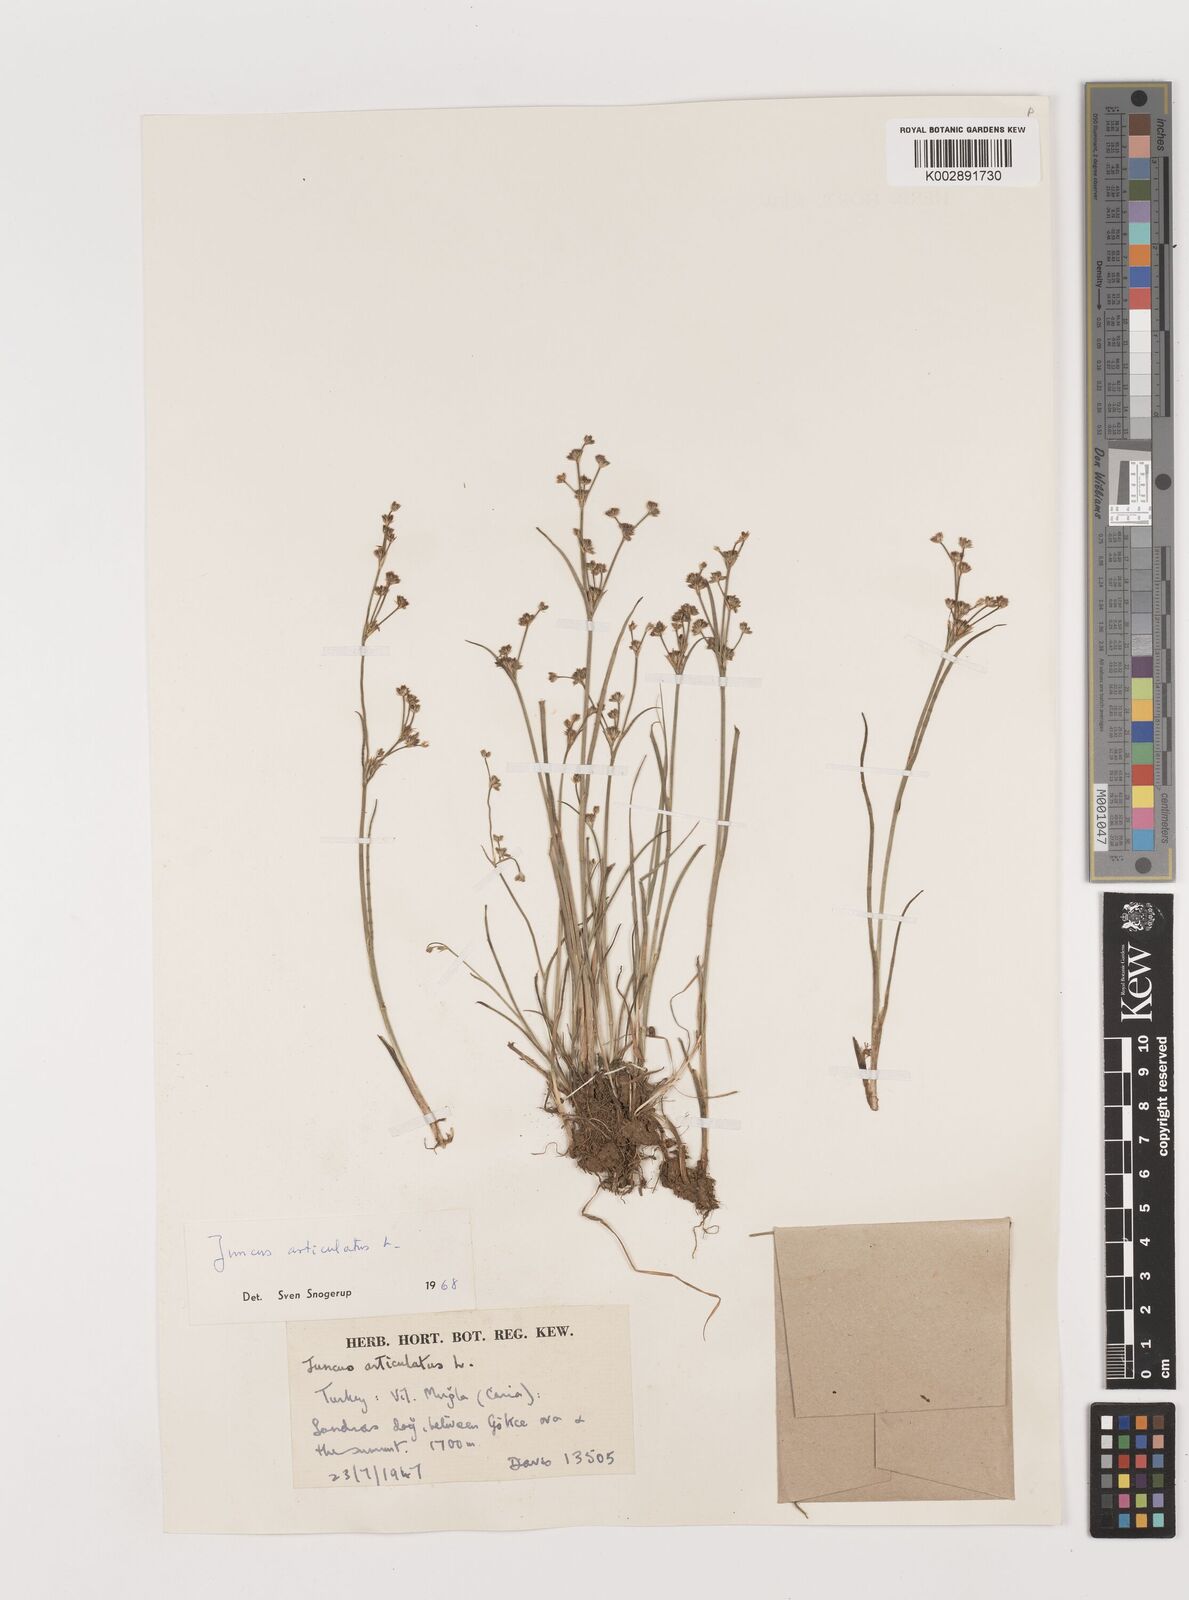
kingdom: Plantae
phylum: Tracheophyta
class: Liliopsida
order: Poales
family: Juncaceae
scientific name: Juncaceae
